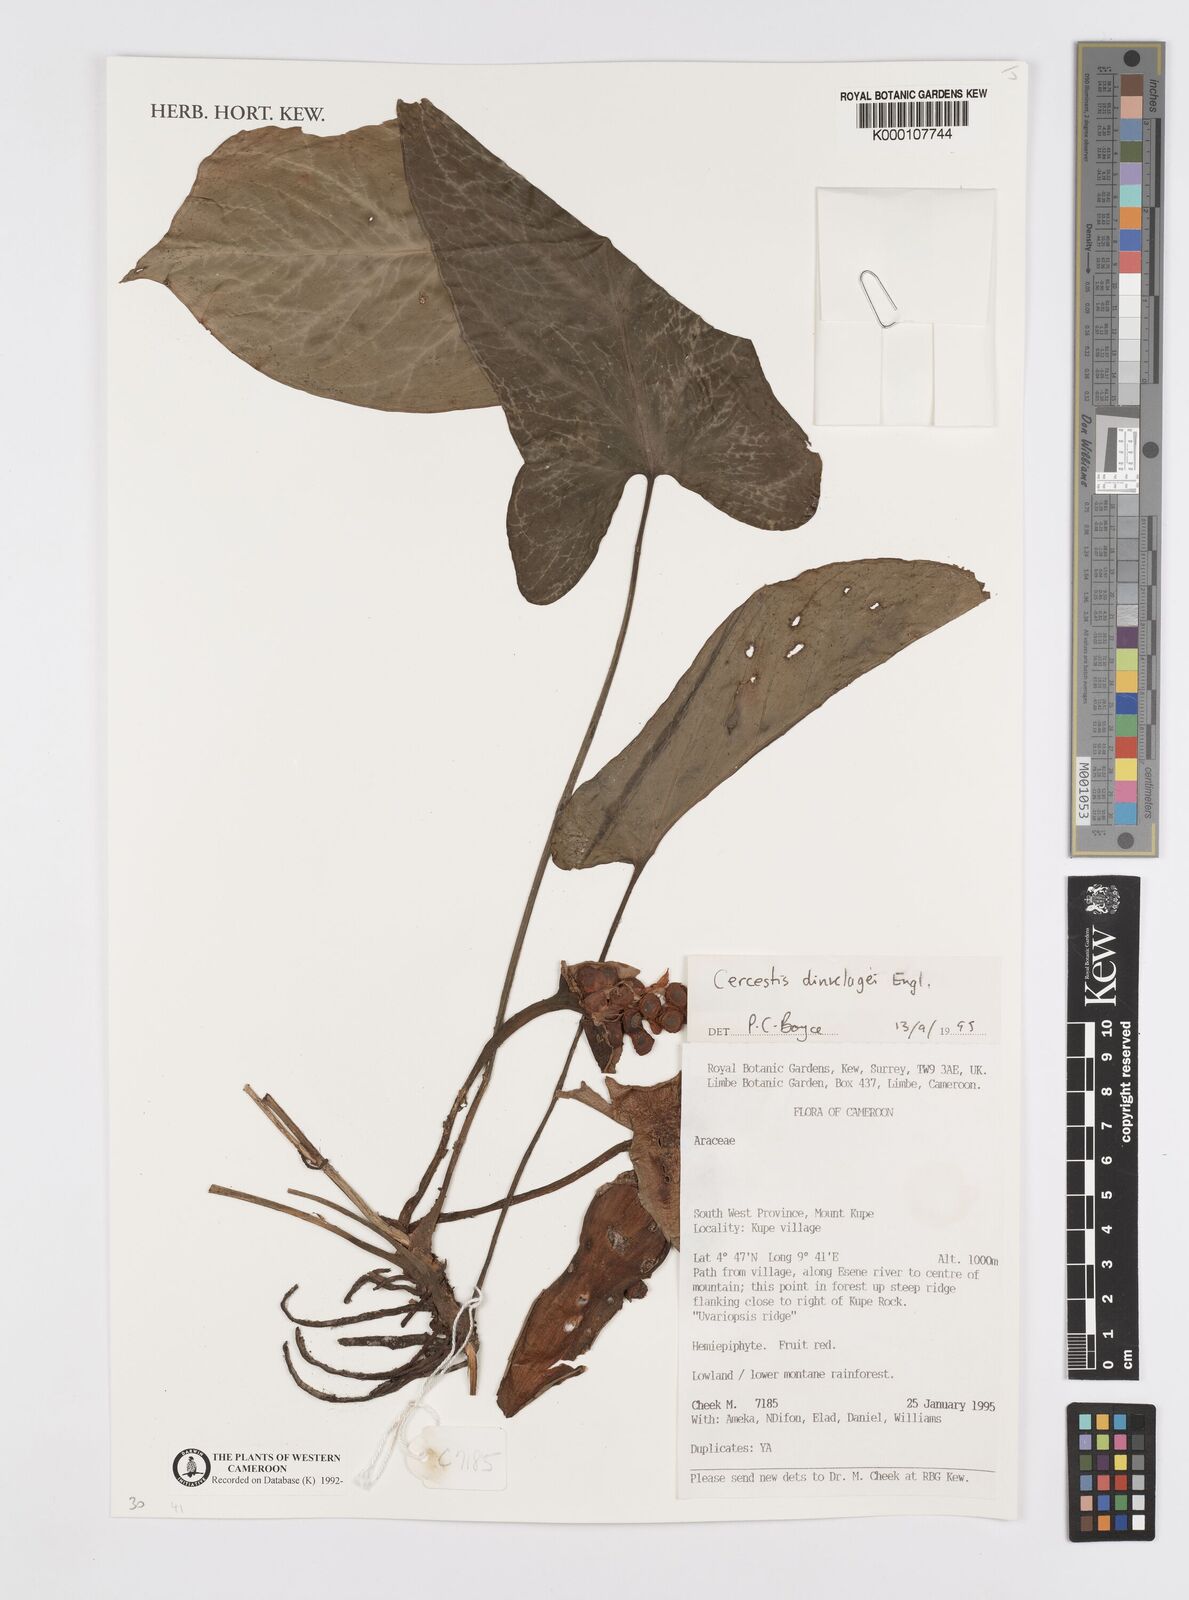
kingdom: Plantae
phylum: Tracheophyta
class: Liliopsida
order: Alismatales
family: Araceae
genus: Cercestis
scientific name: Cercestis dinklagei
